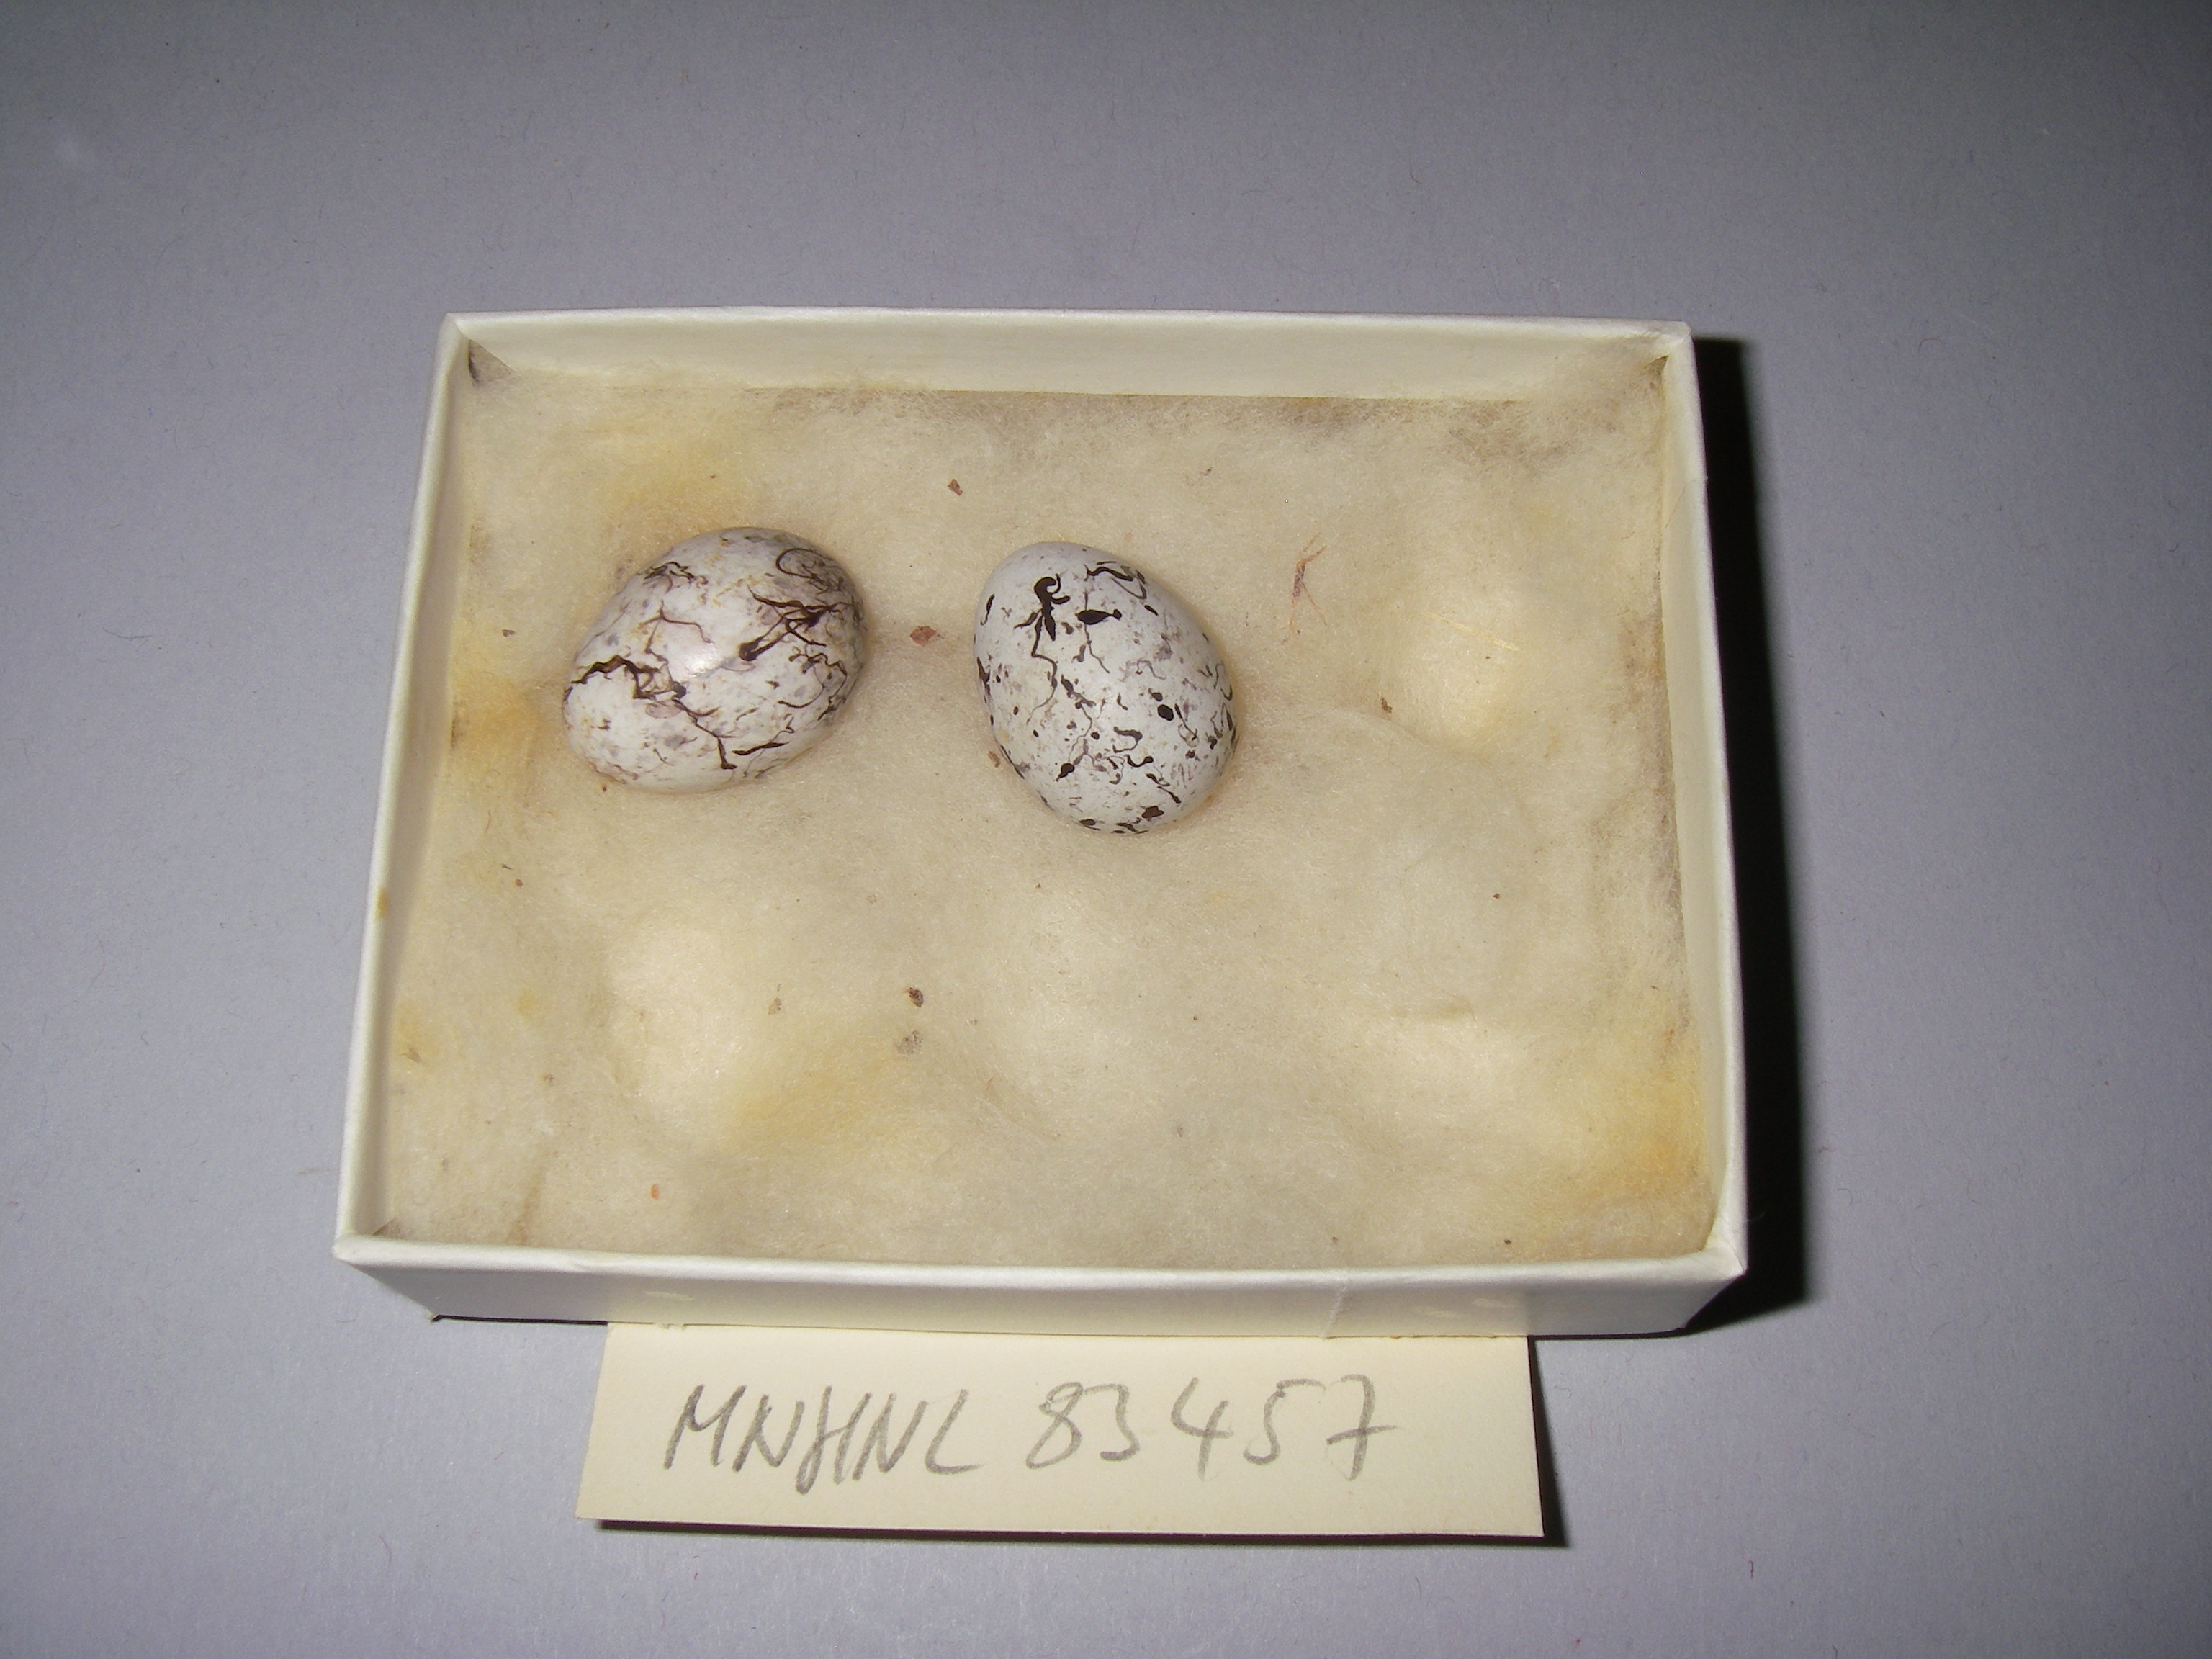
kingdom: Animalia
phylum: Chordata
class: Aves
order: Passeriformes
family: Emberizidae
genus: Emberiza
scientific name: Emberiza citrinella
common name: Yellowhammer
